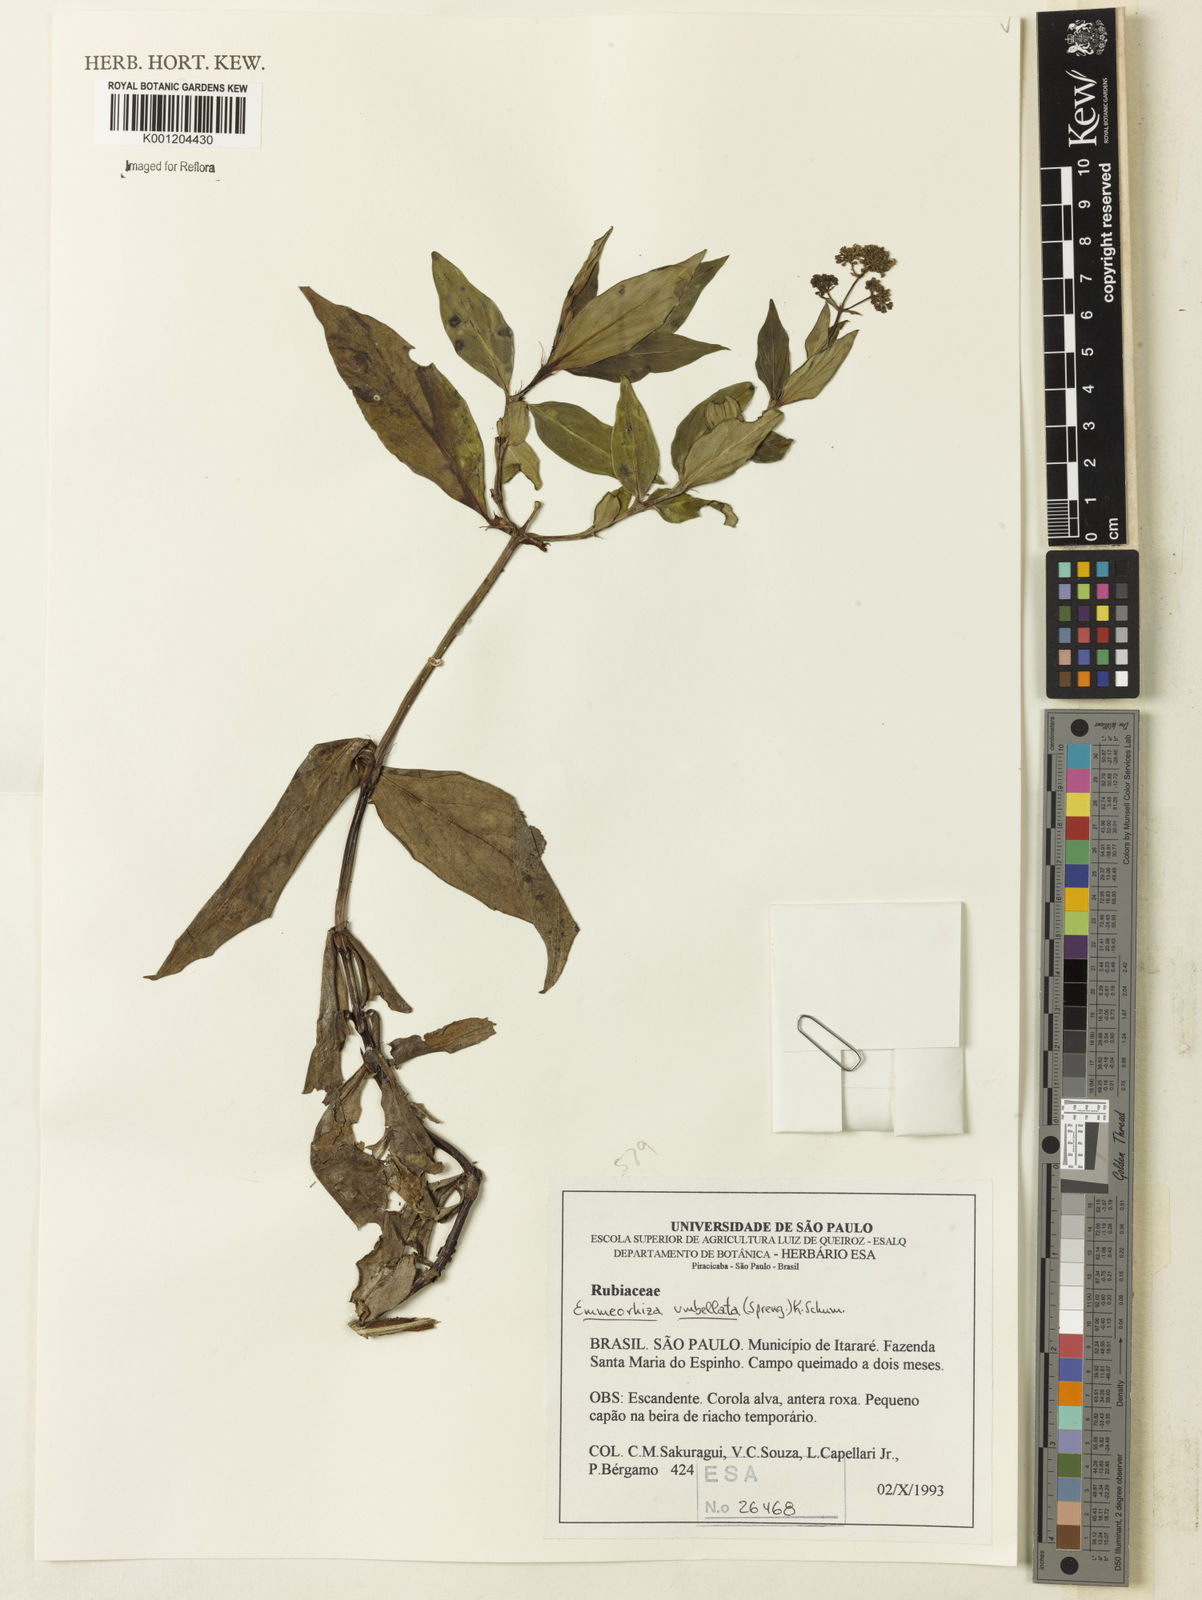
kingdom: Plantae
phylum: Tracheophyta
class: Magnoliopsida
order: Gentianales
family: Rubiaceae
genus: Emmeorhiza
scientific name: Emmeorhiza umbellata
